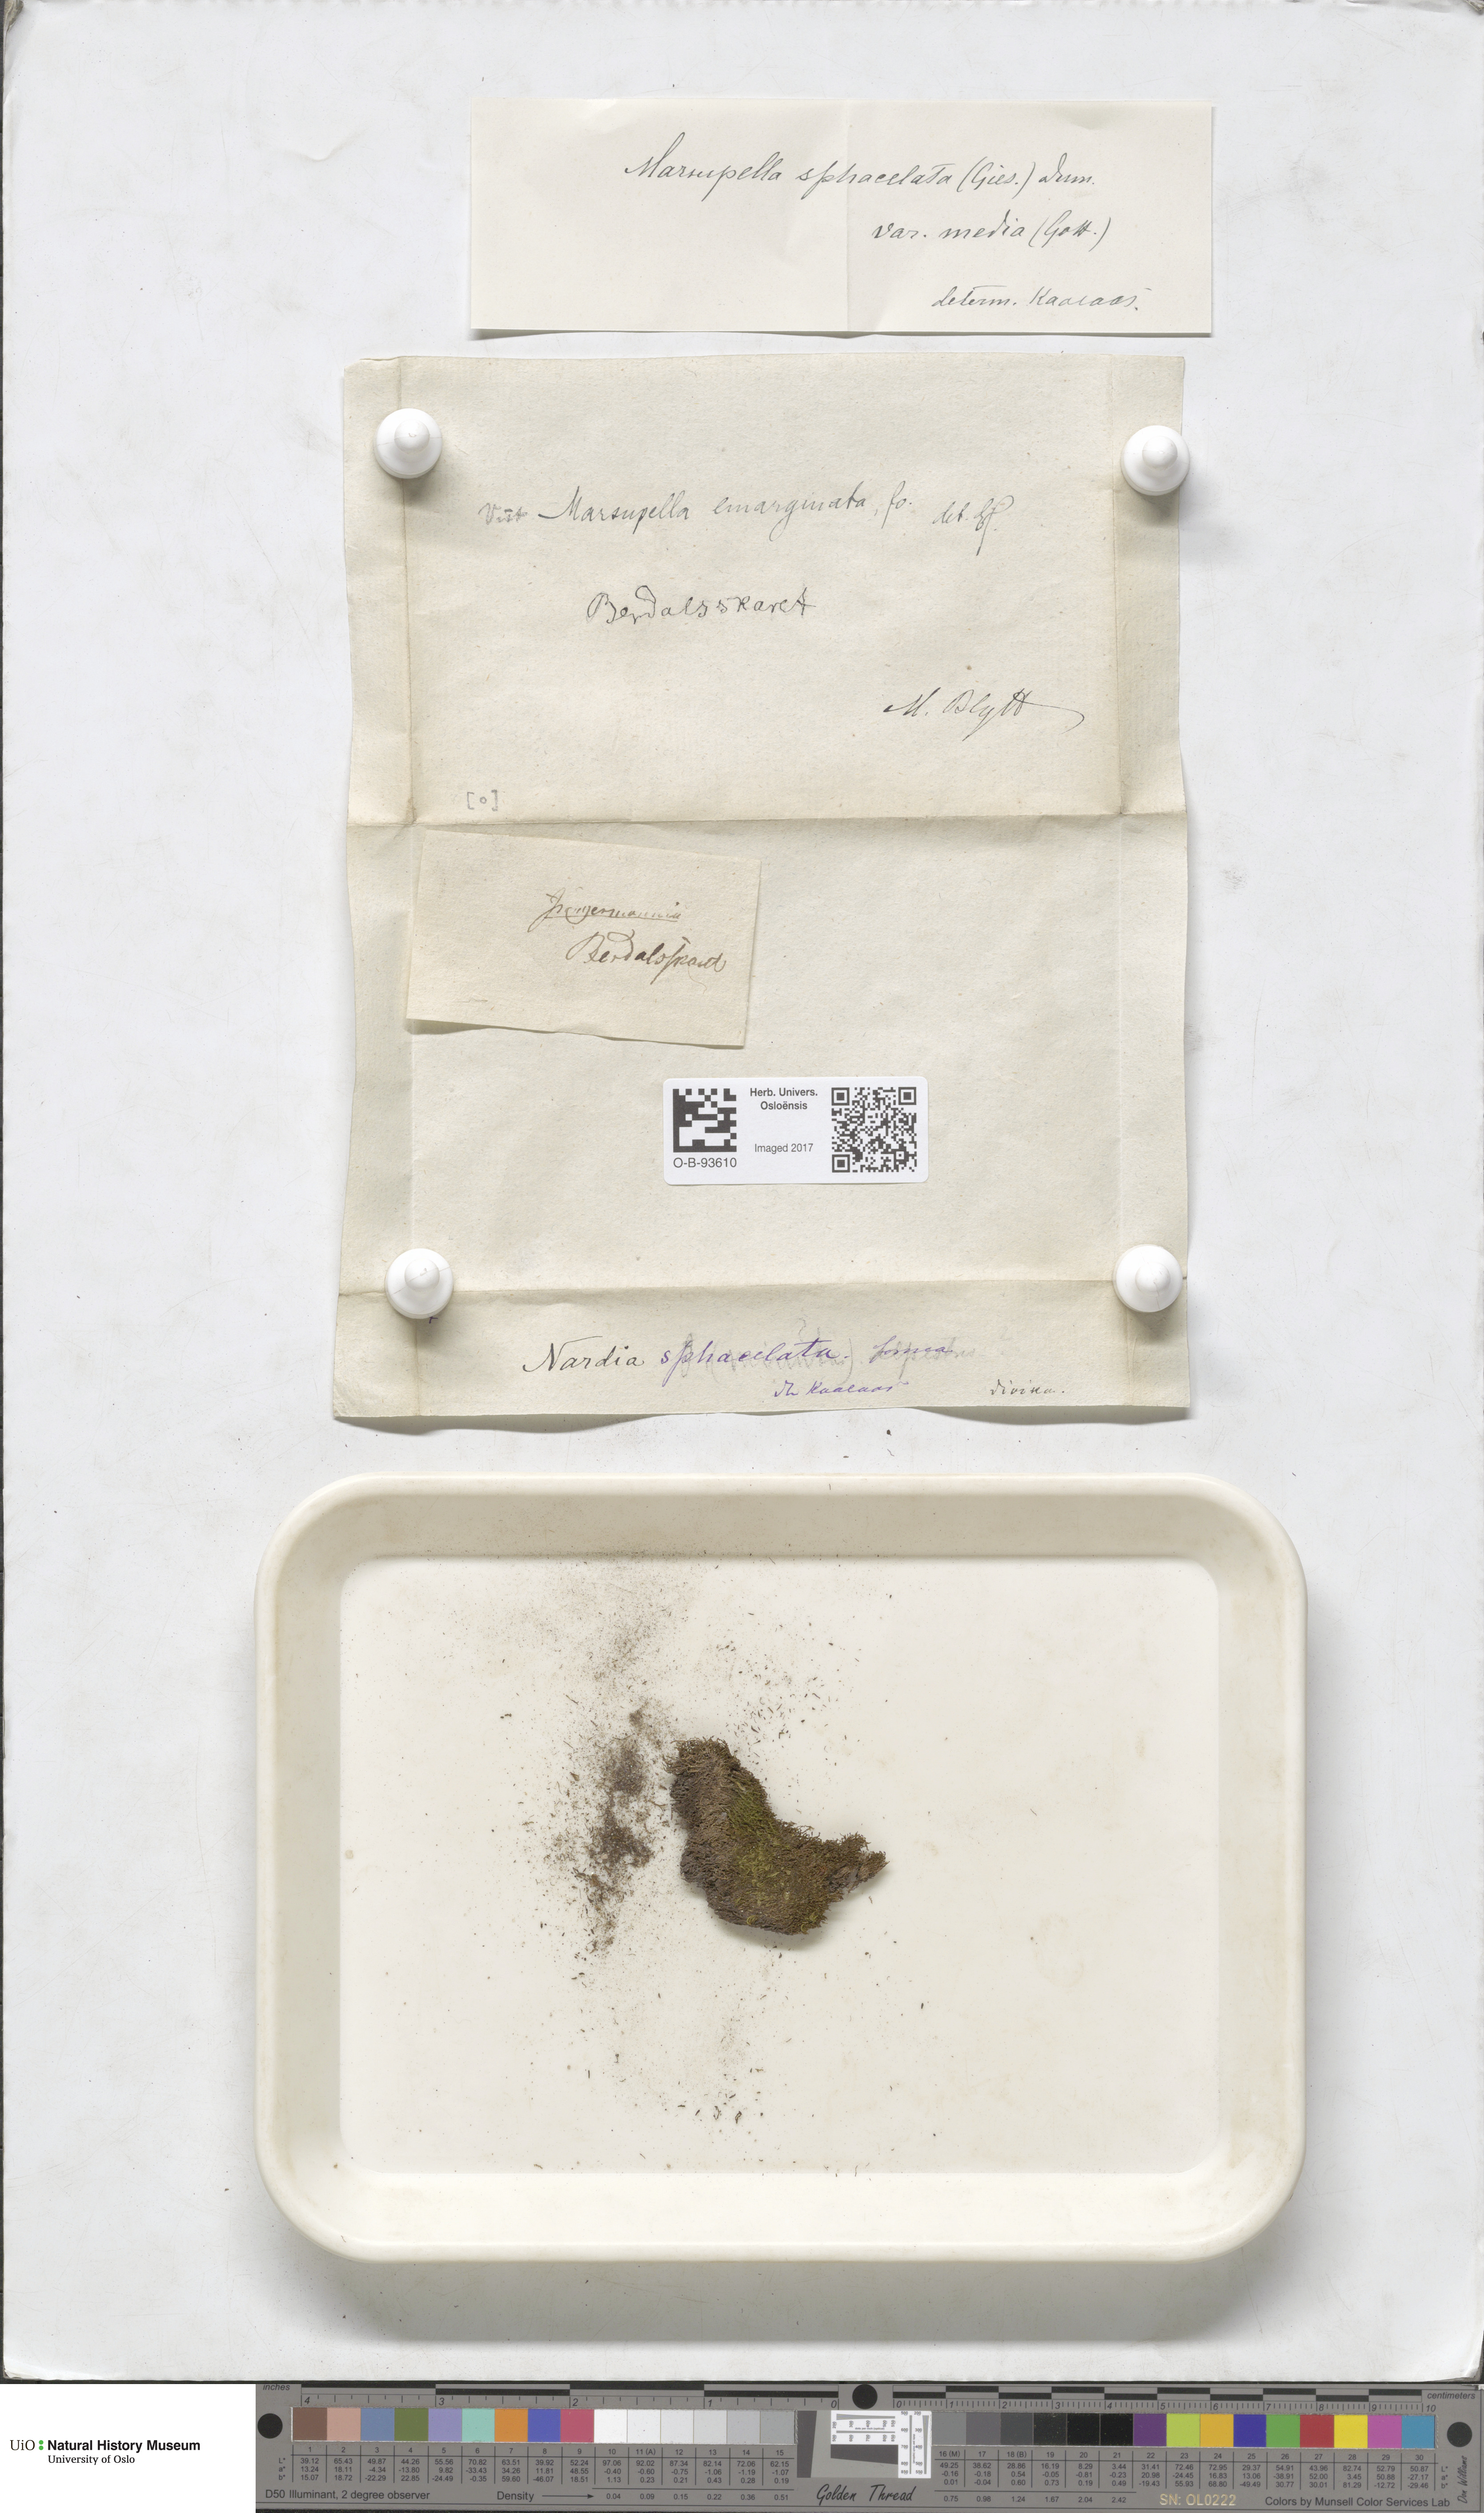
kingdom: Plantae
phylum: Marchantiophyta
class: Jungermanniopsida
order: Jungermanniales
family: Gymnomitriaceae
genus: Marsupella
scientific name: Marsupella emarginata
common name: Notched rustwort
